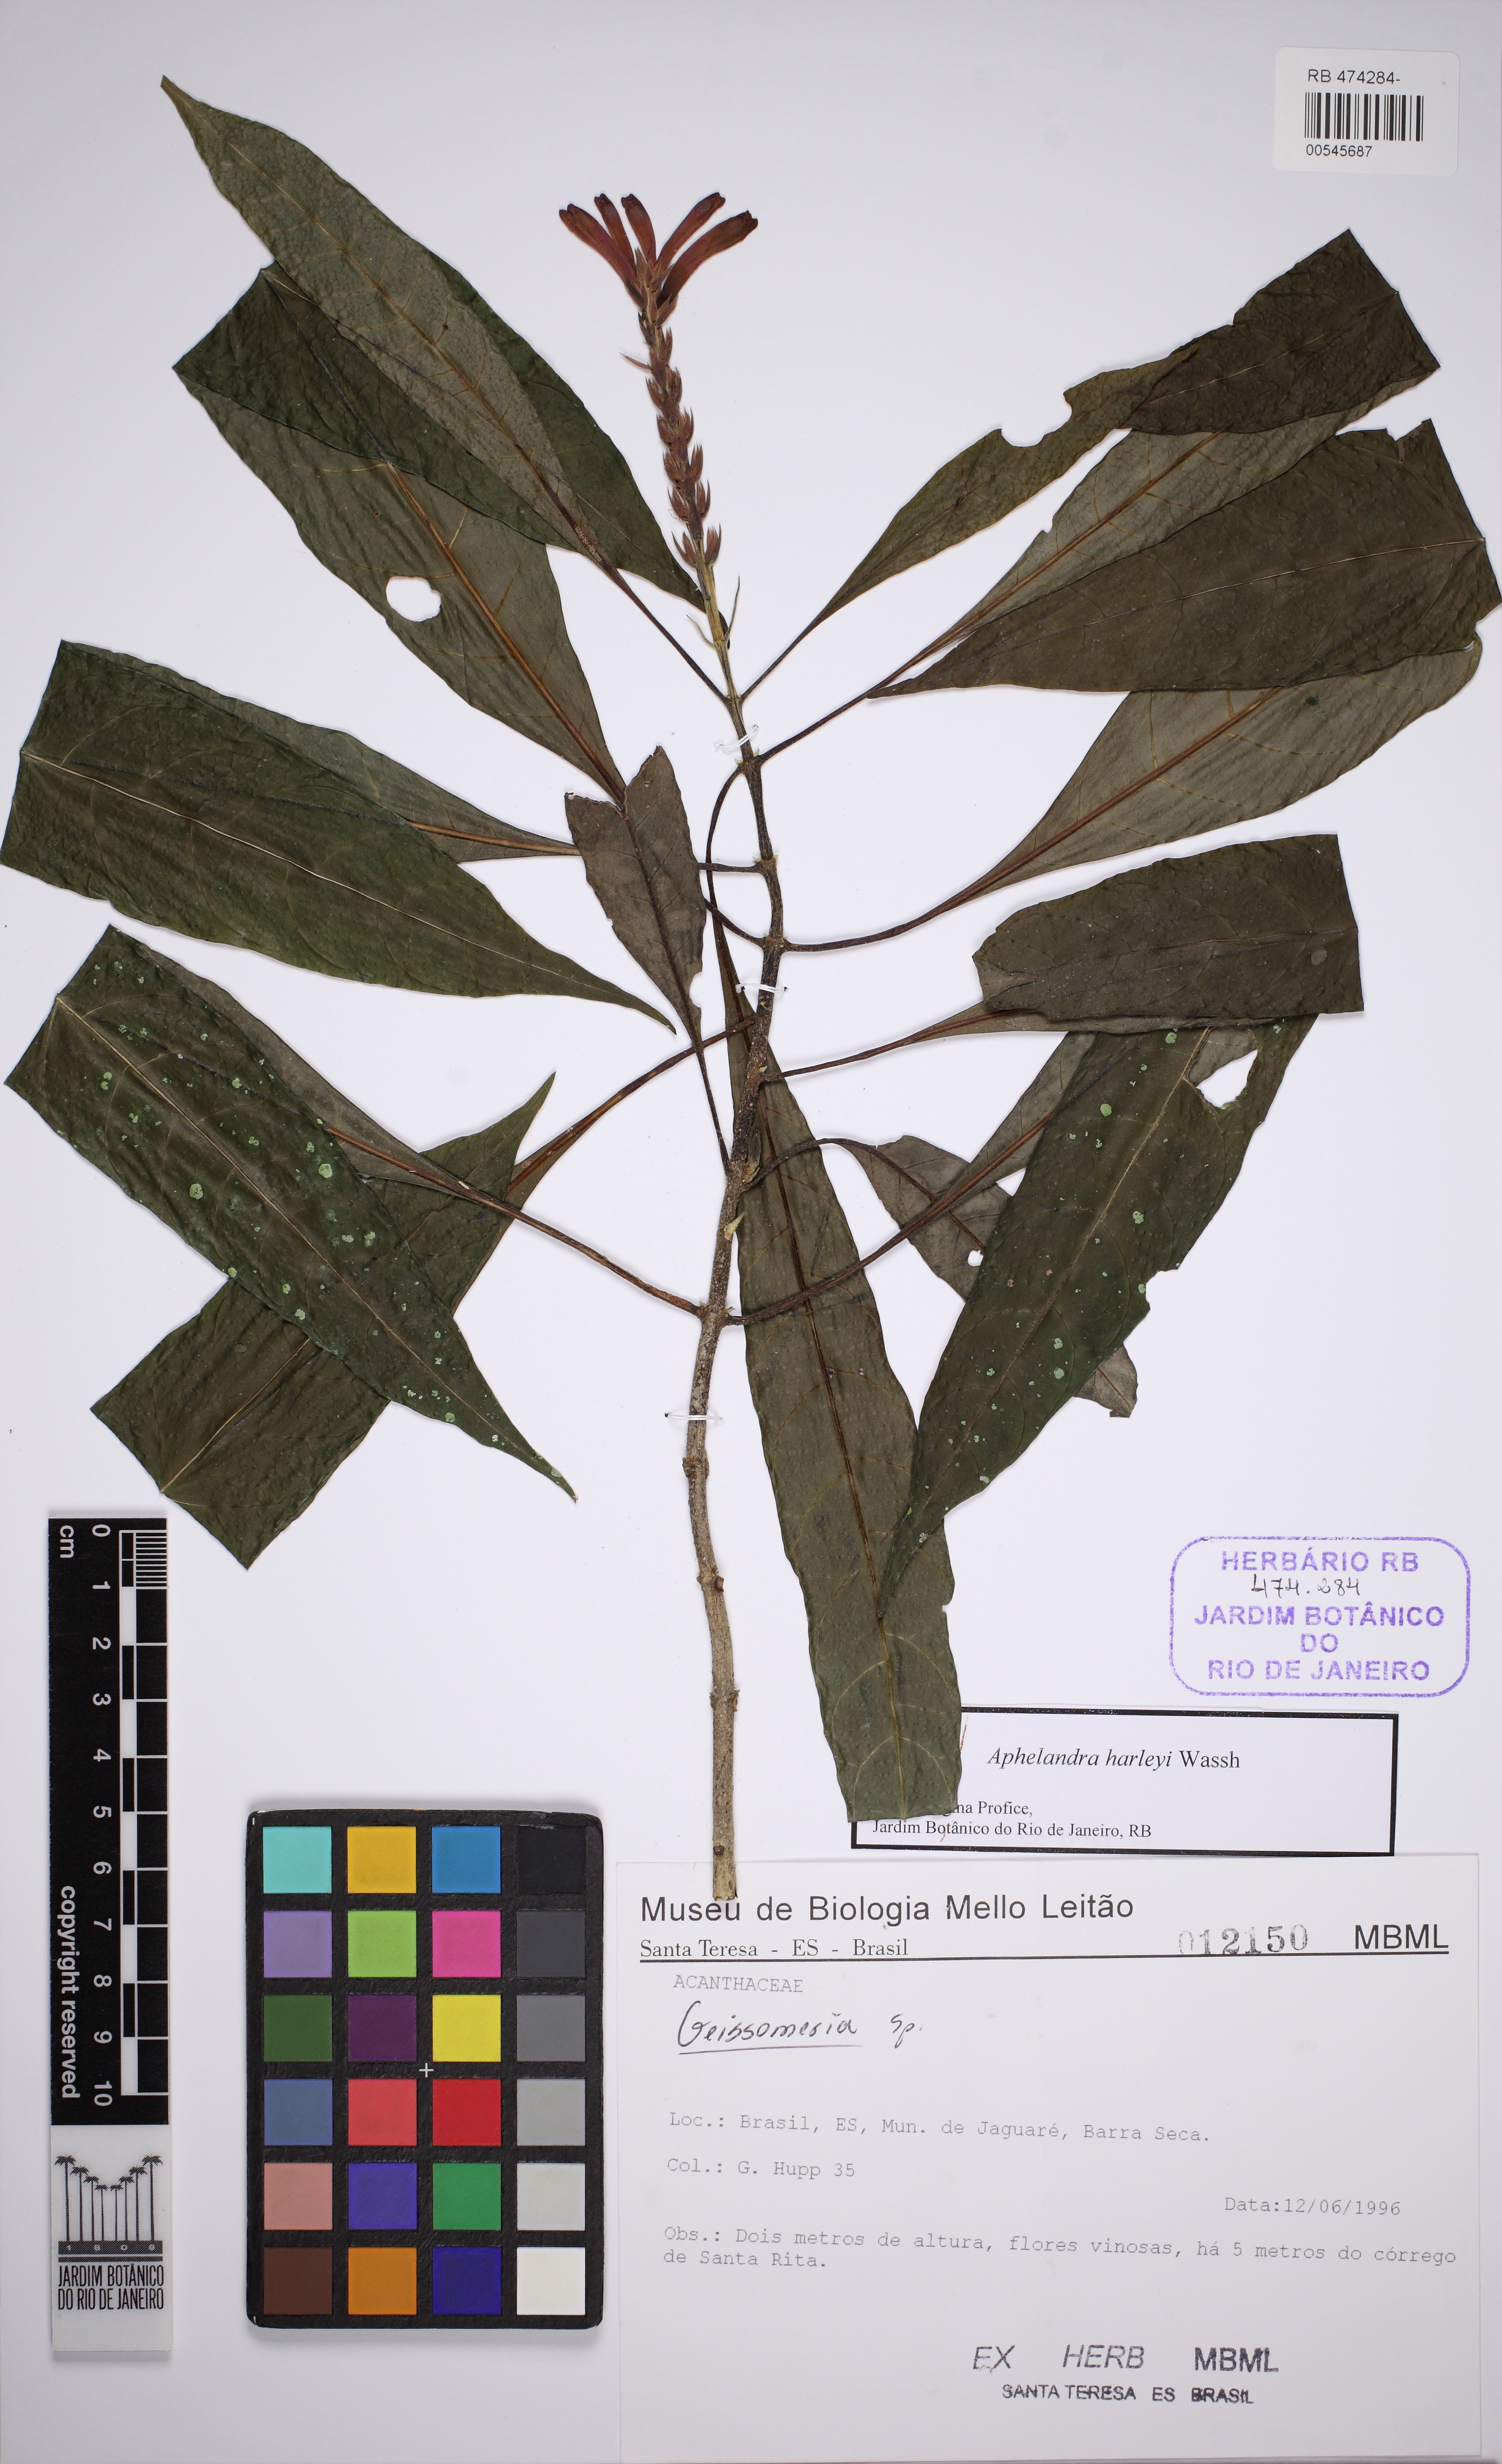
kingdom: Plantae
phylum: Tracheophyta
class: Magnoliopsida
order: Lamiales
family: Acanthaceae
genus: Aphelandra
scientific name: Aphelandra harleyi
